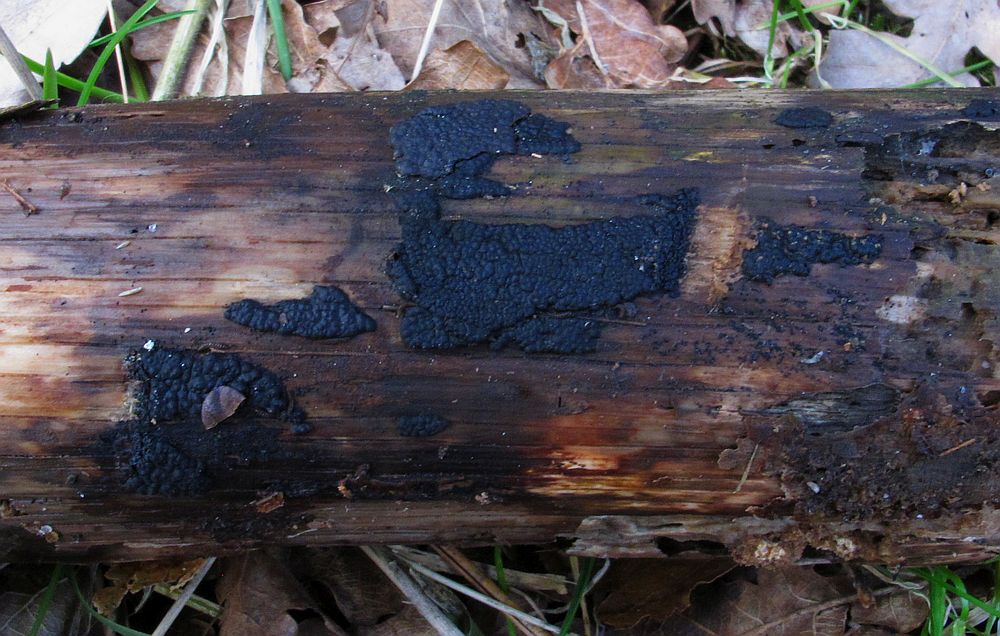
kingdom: Fungi
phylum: Ascomycota
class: Sordariomycetes
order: Xylariales
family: Xylariaceae
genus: Nemania
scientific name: Nemania serpens
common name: almindelig kuldyne
